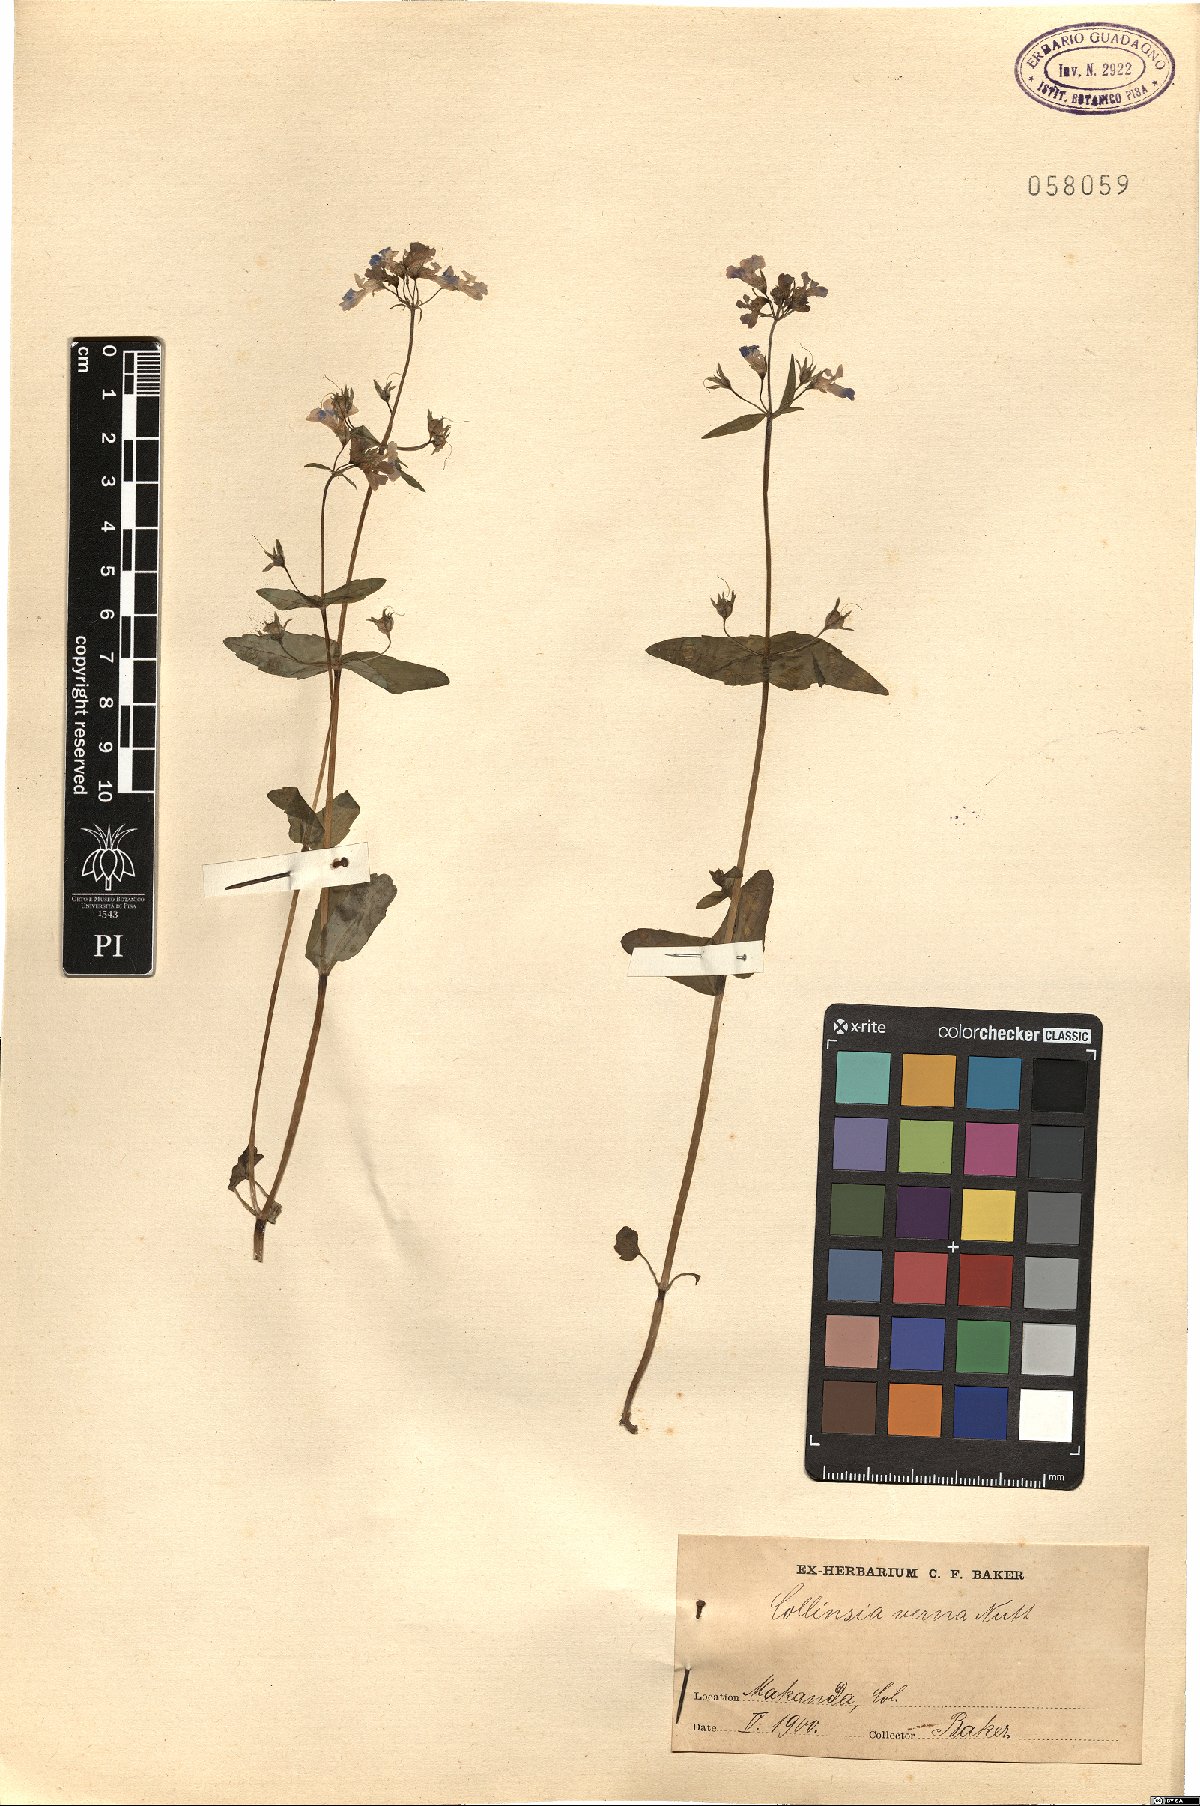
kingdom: Plantae
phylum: Tracheophyta
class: Magnoliopsida
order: Lamiales
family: Plantaginaceae
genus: Collinsia
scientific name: Collinsia verna
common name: Broad-leaved collinsia
